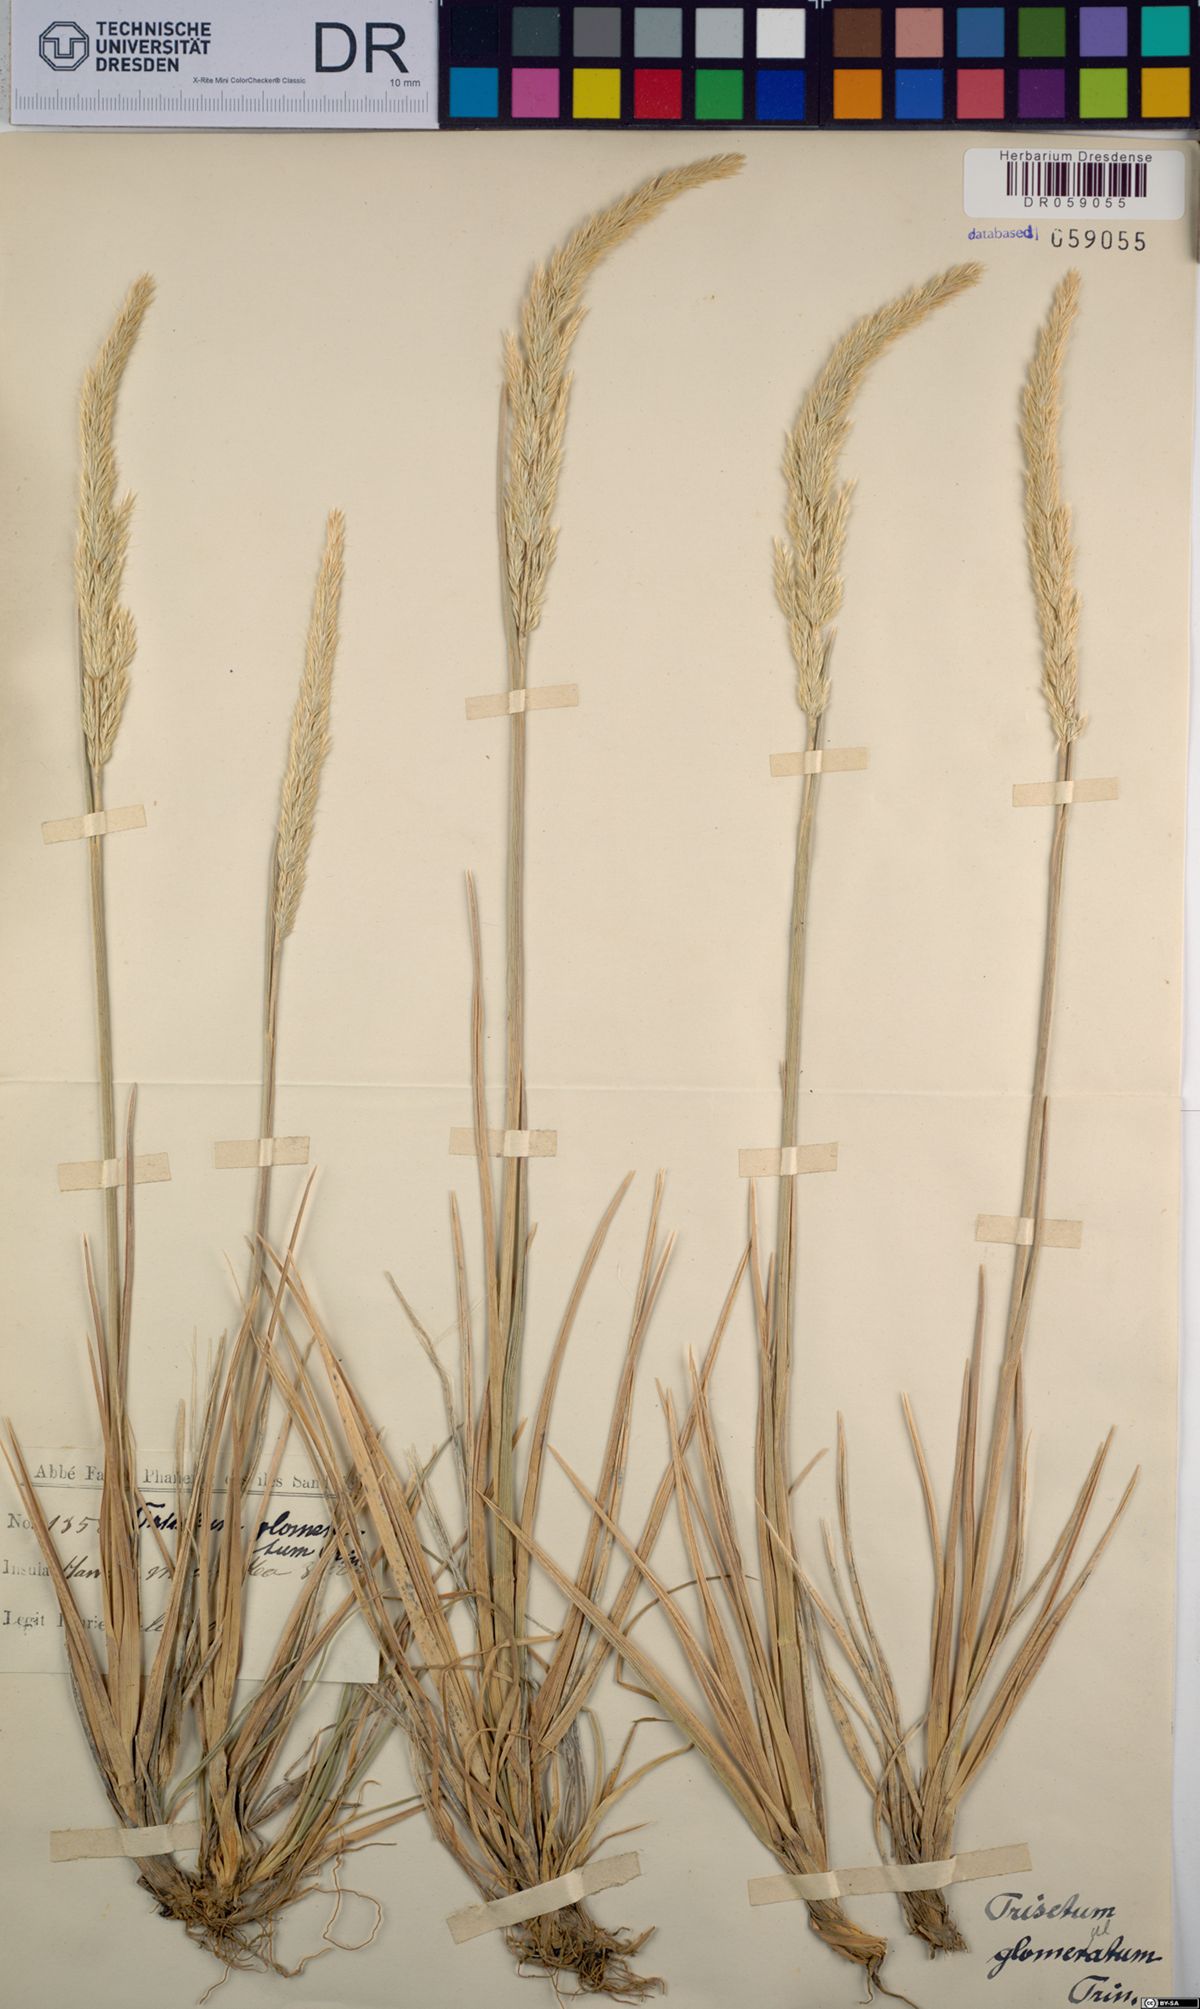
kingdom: Plantae
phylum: Tracheophyta
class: Liliopsida
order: Poales
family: Poaceae
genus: Trisetum
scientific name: Trisetum glomeratum
